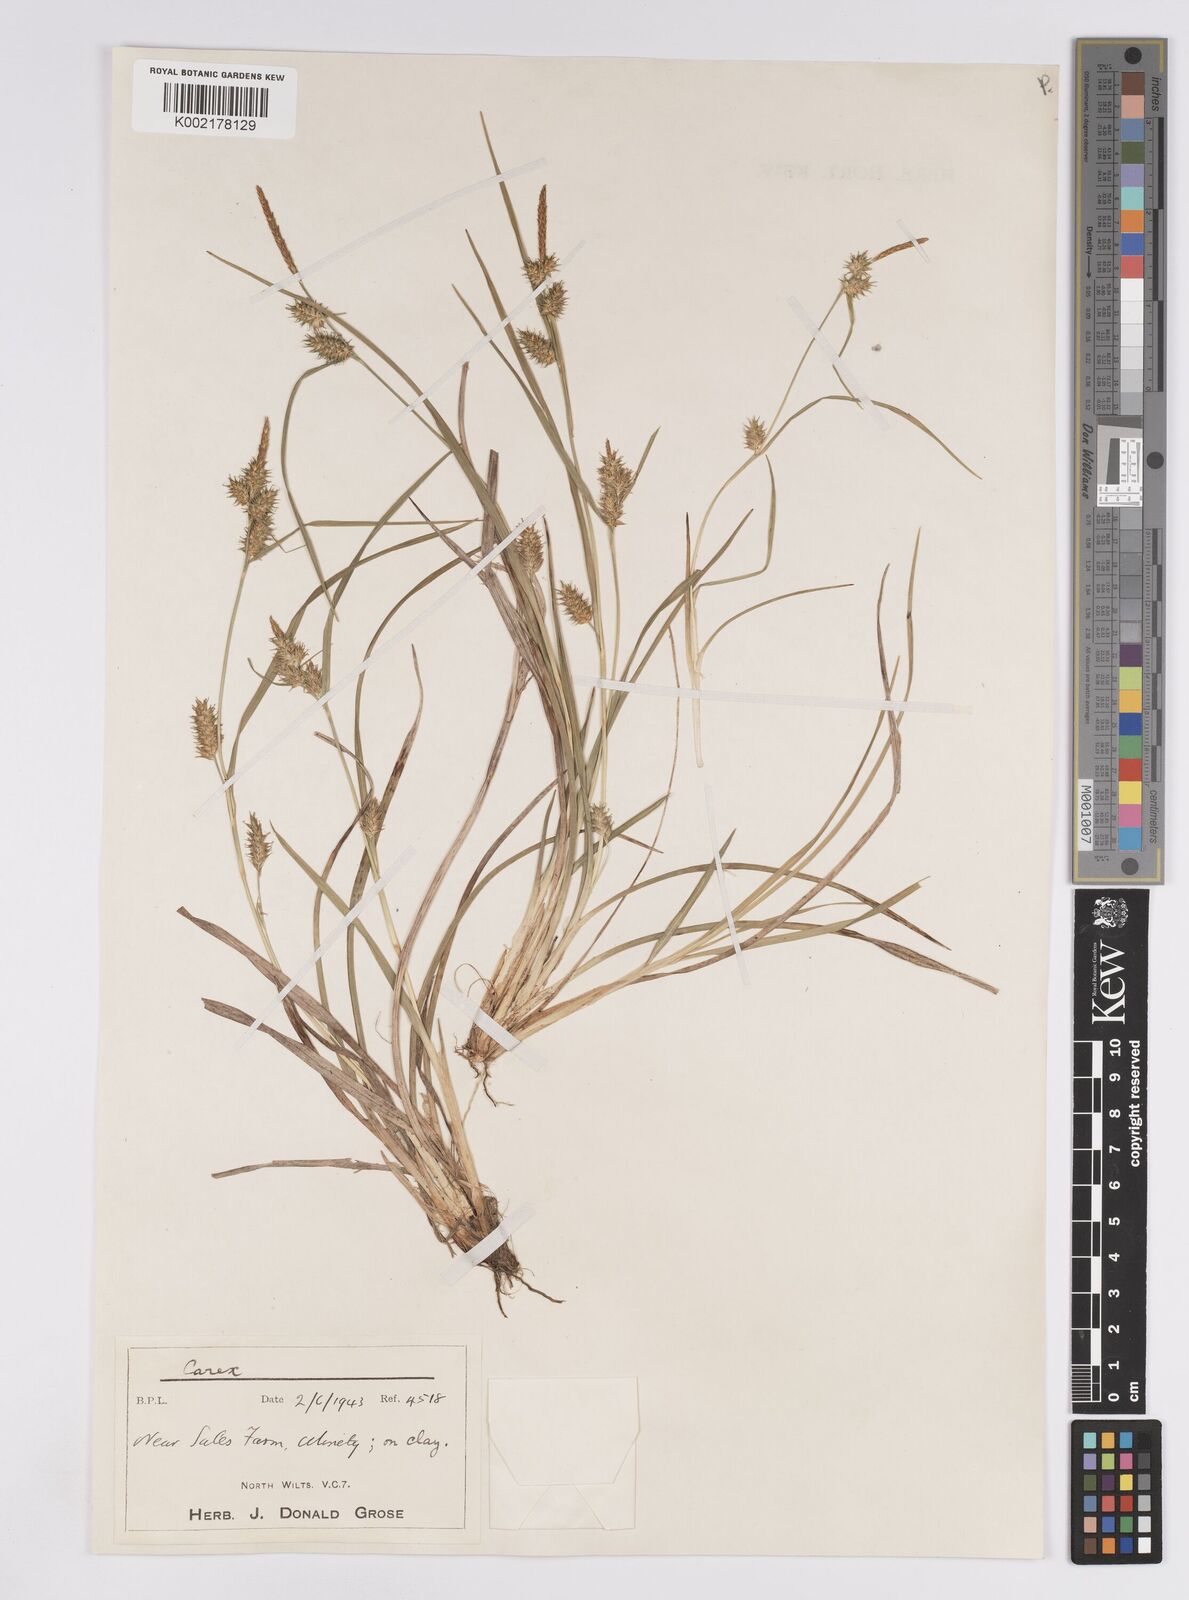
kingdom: Plantae
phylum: Tracheophyta
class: Liliopsida
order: Poales
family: Cyperaceae
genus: Carex
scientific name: Carex demissa
